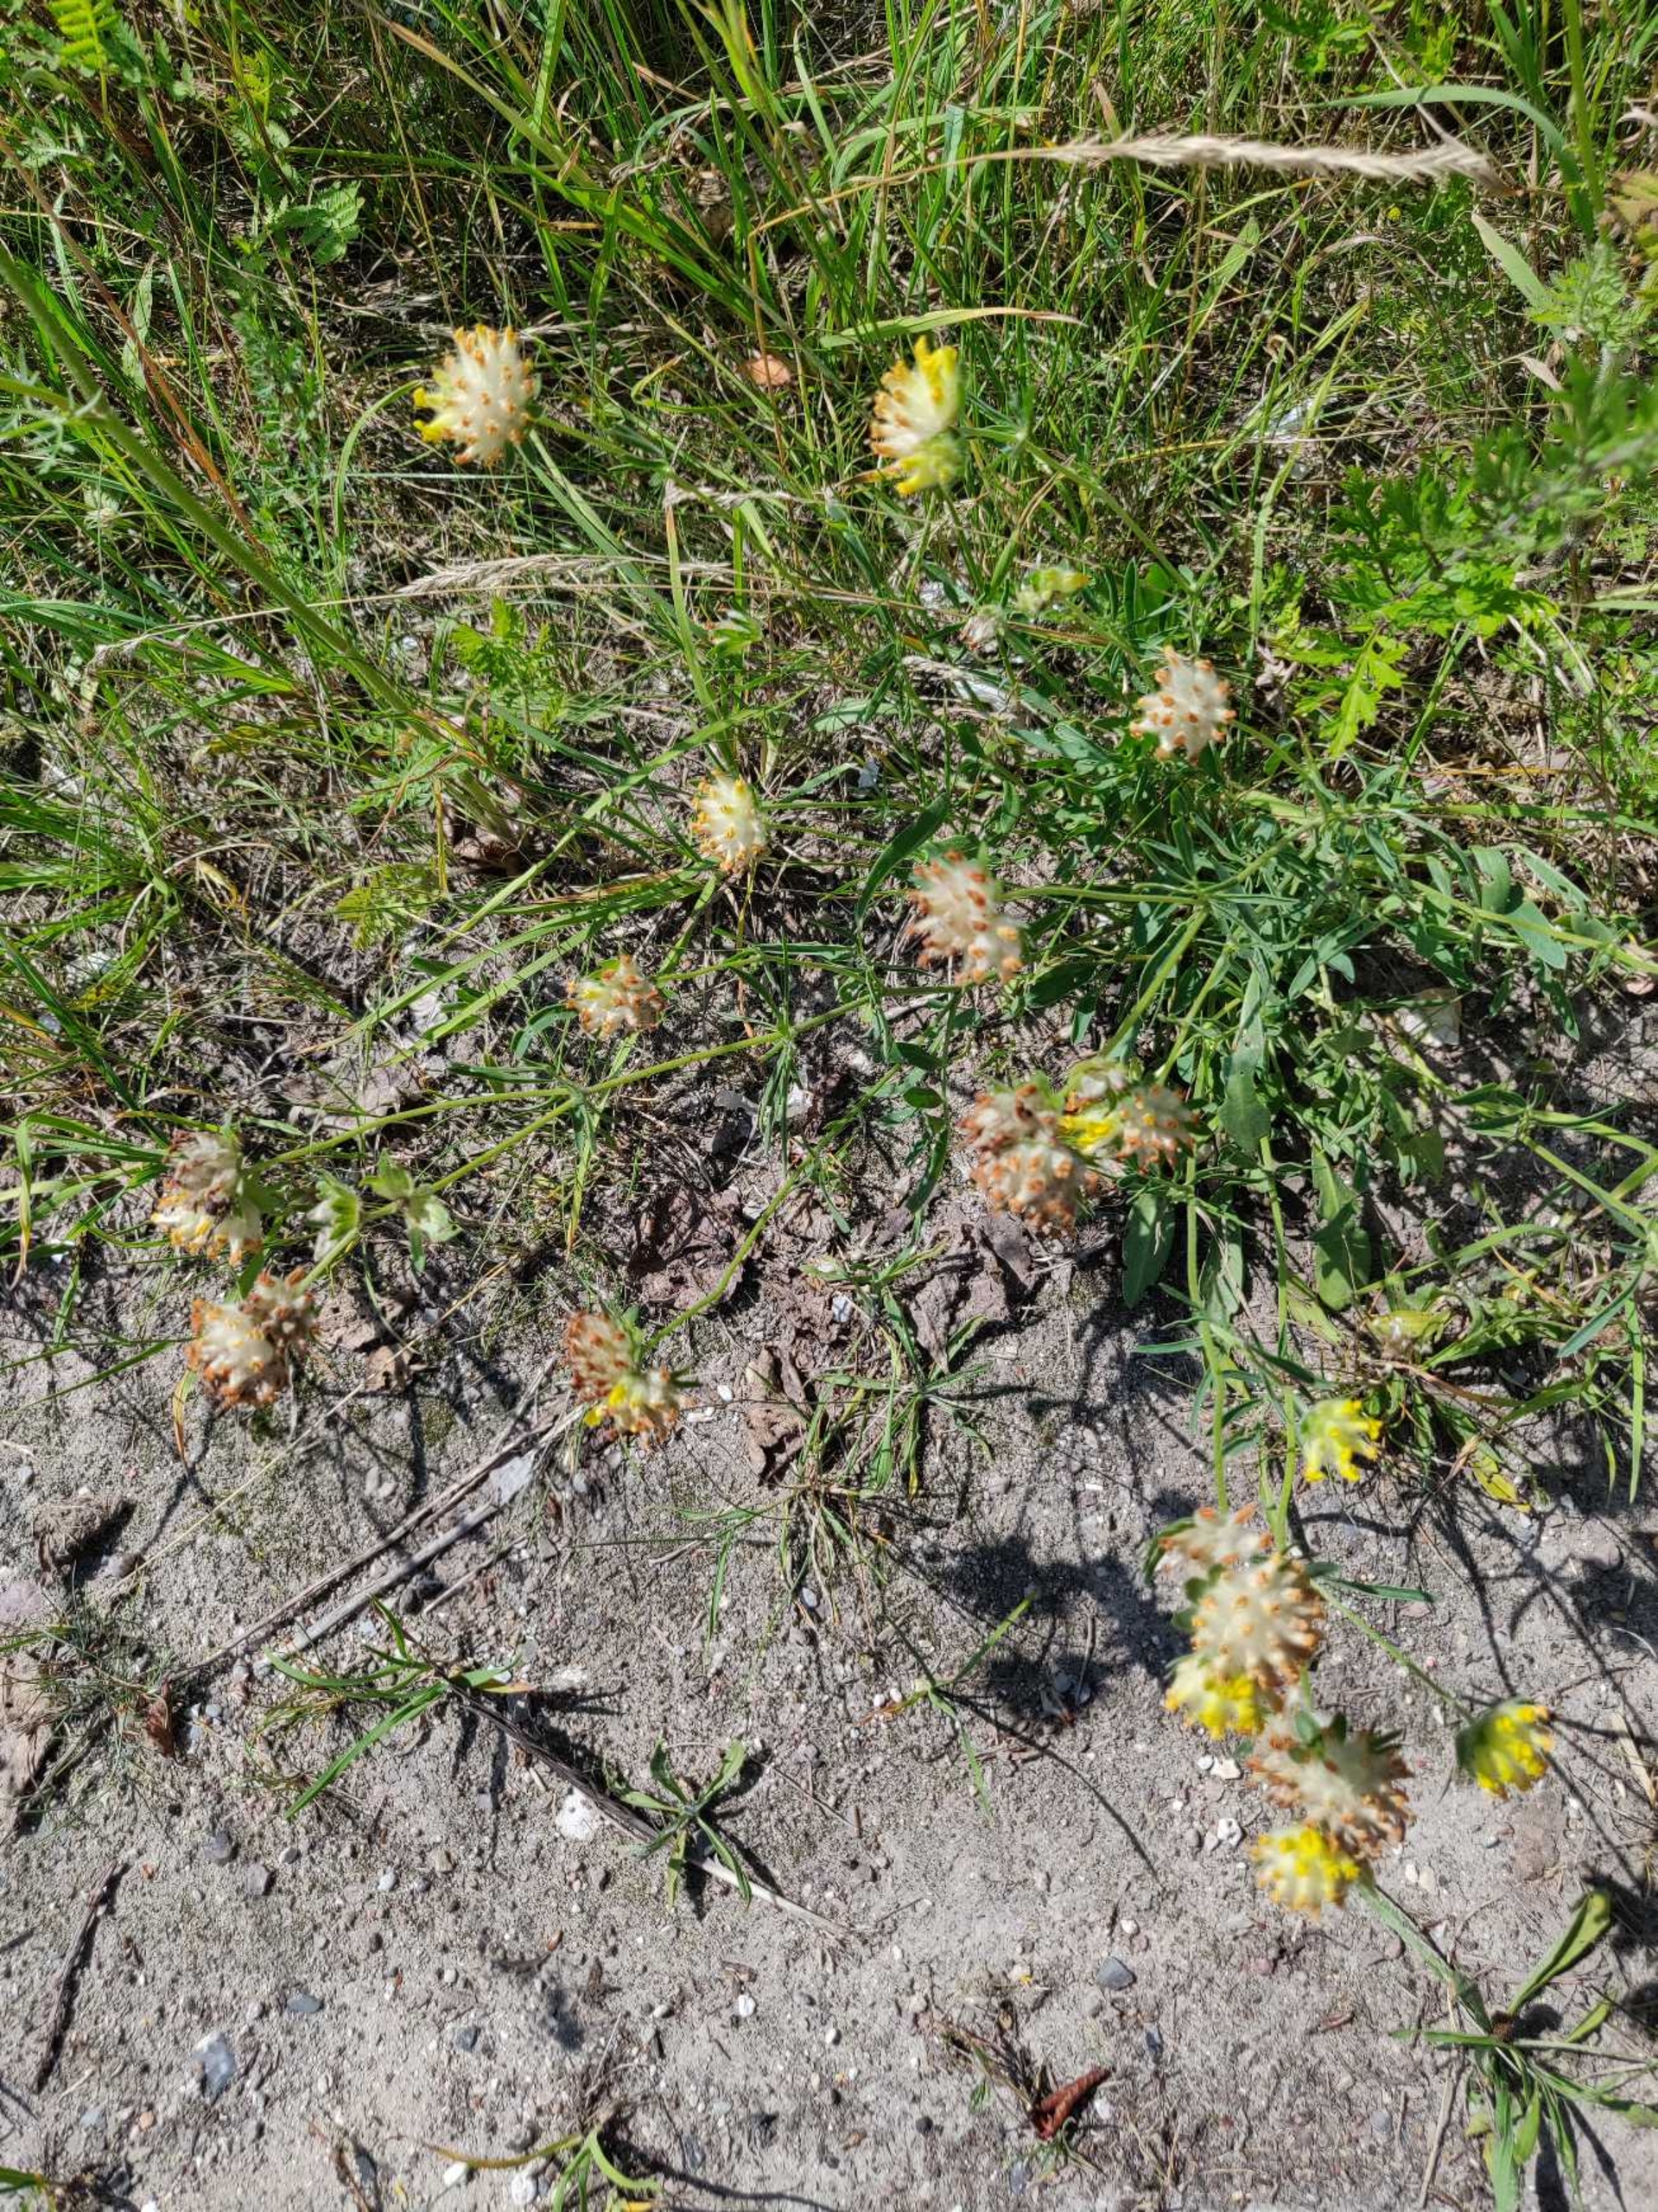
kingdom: Plantae
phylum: Tracheophyta
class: Magnoliopsida
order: Fabales
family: Fabaceae
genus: Anthyllis
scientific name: Anthyllis vulneraria
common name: Rundbælg
